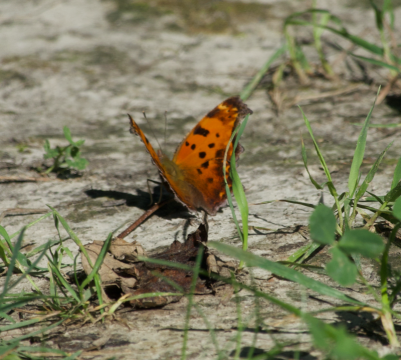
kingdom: Animalia
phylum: Arthropoda
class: Insecta
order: Lepidoptera
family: Nymphalidae
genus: Polygonia
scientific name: Polygonia comma
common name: Eastern Comma
